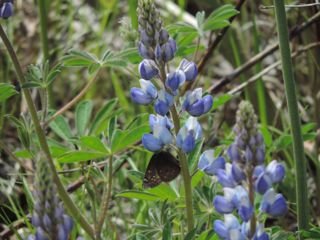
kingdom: Animalia
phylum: Arthropoda
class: Insecta
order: Lepidoptera
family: Hesperiidae
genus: Gesta
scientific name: Gesta
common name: Juvenal's Duskywing
